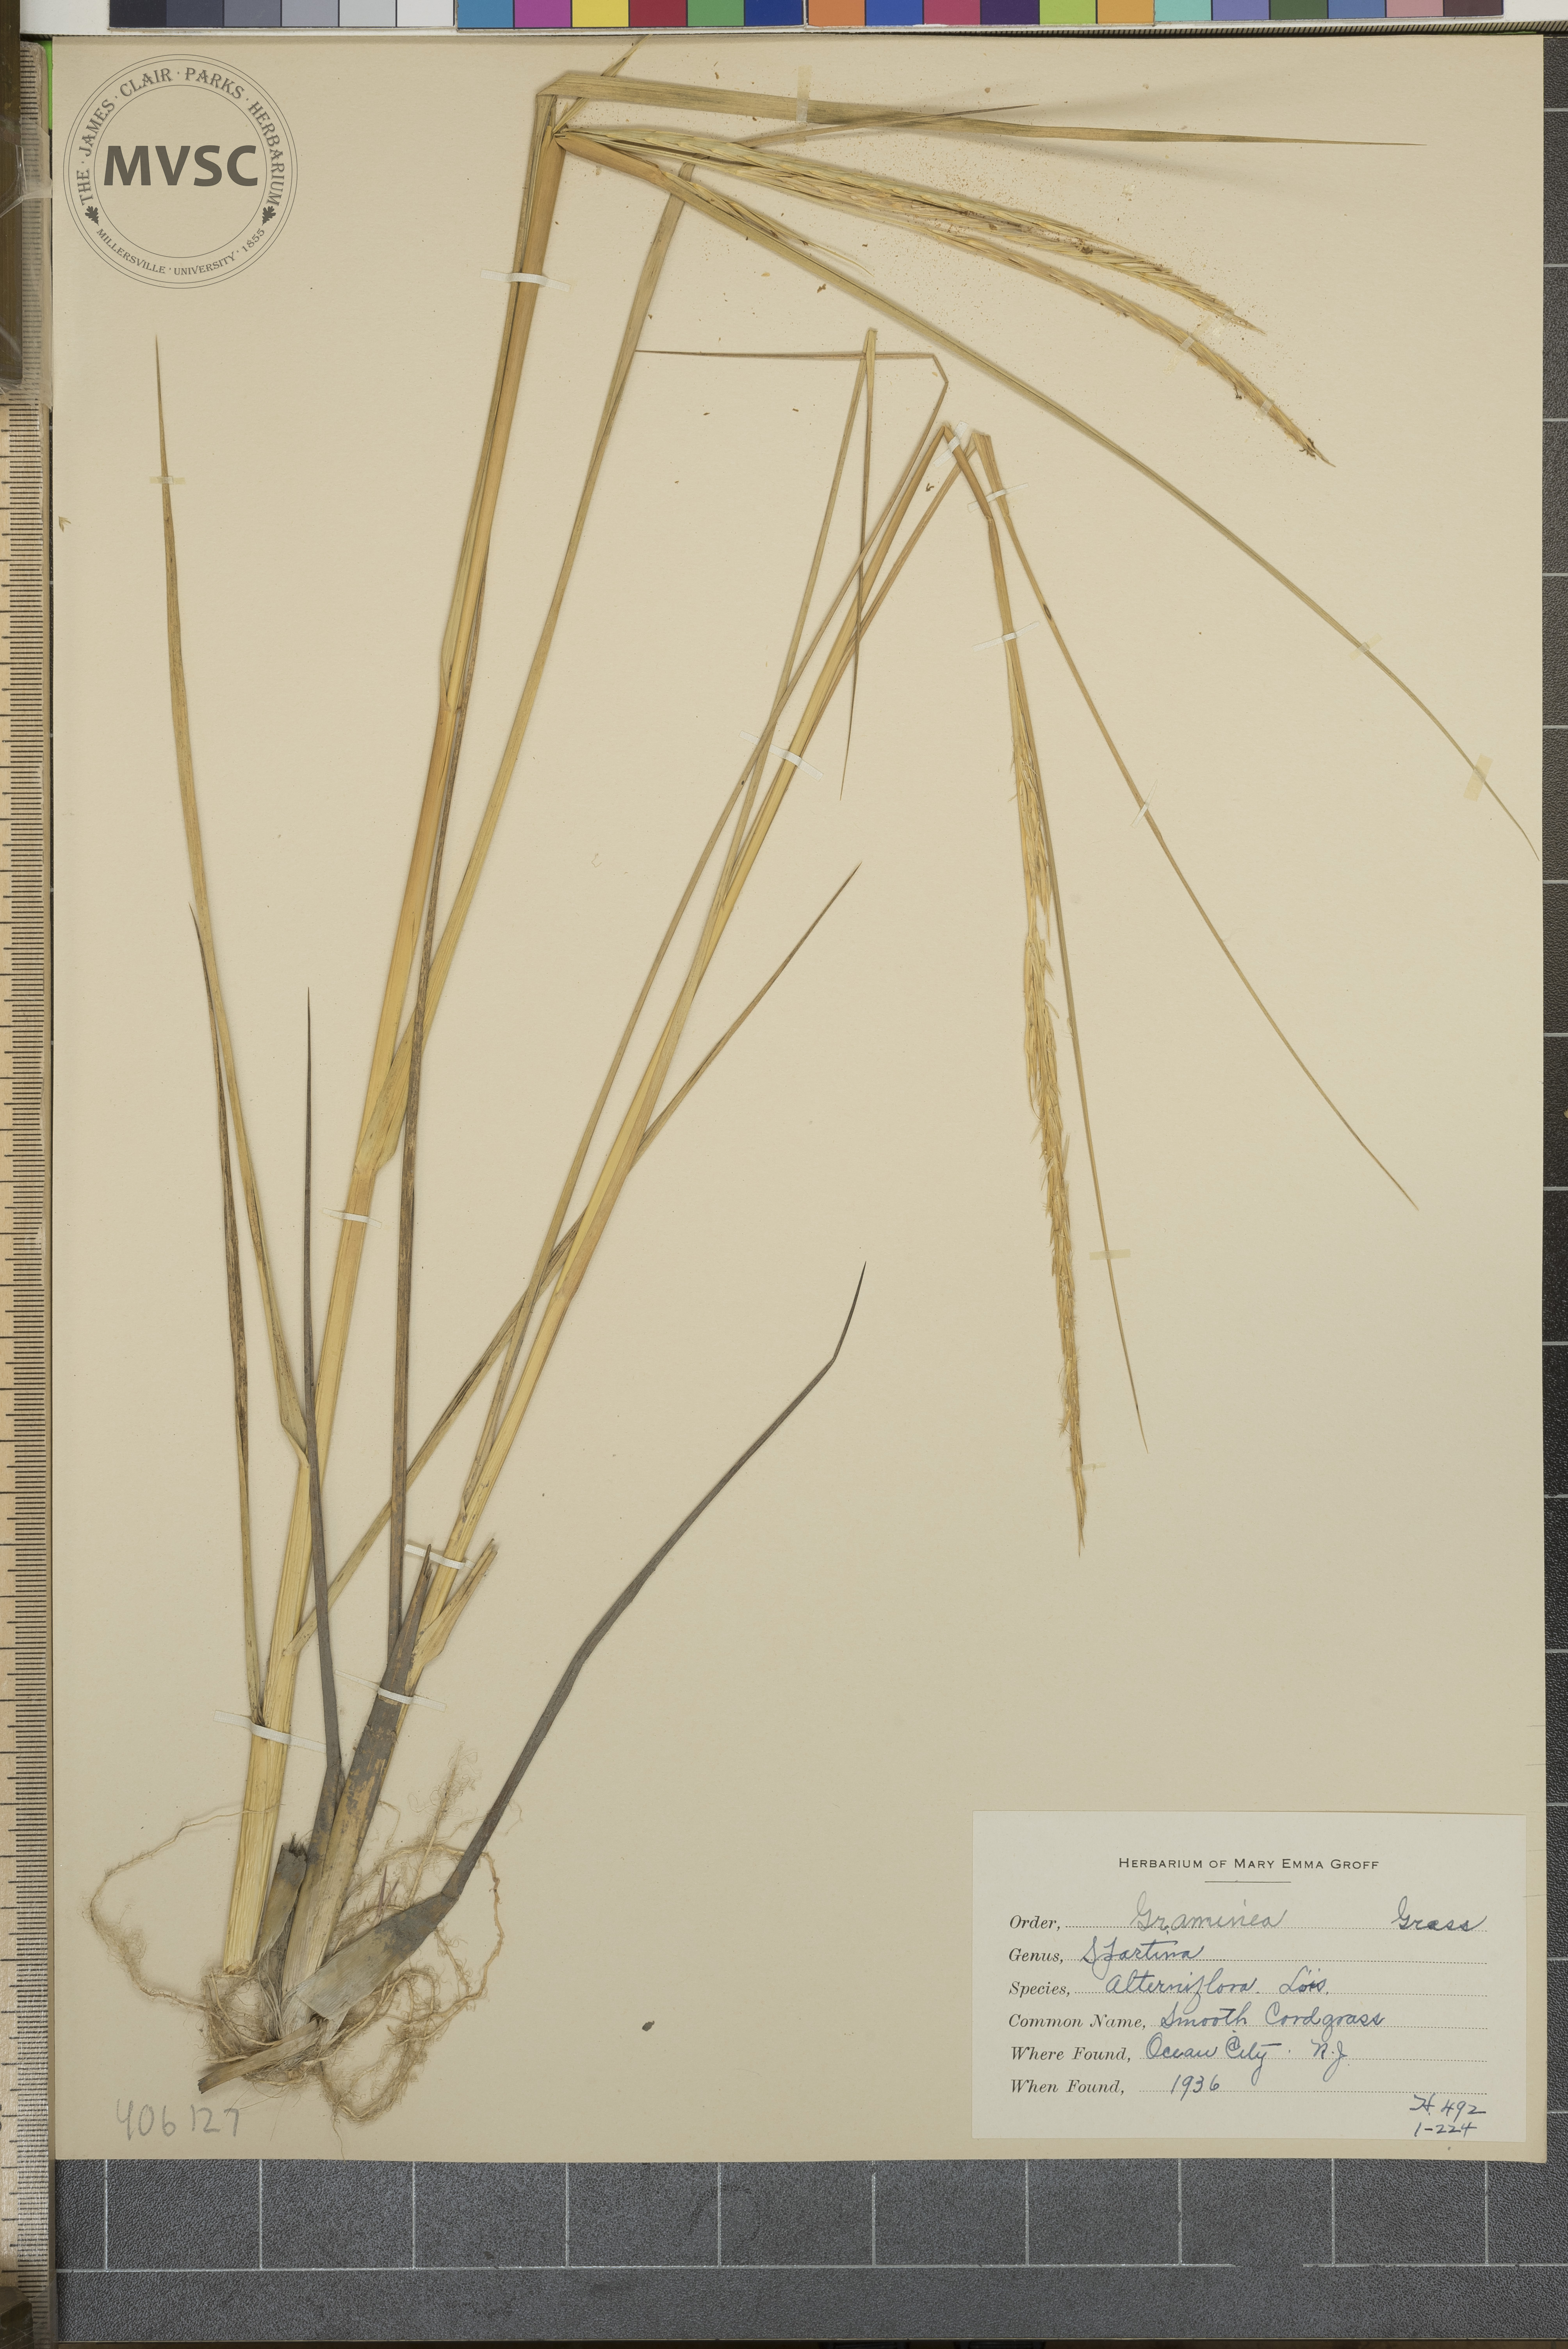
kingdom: Plantae
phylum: Tracheophyta
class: Liliopsida
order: Poales
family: Poaceae
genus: Sporobolus
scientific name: Sporobolus alterniflorus
